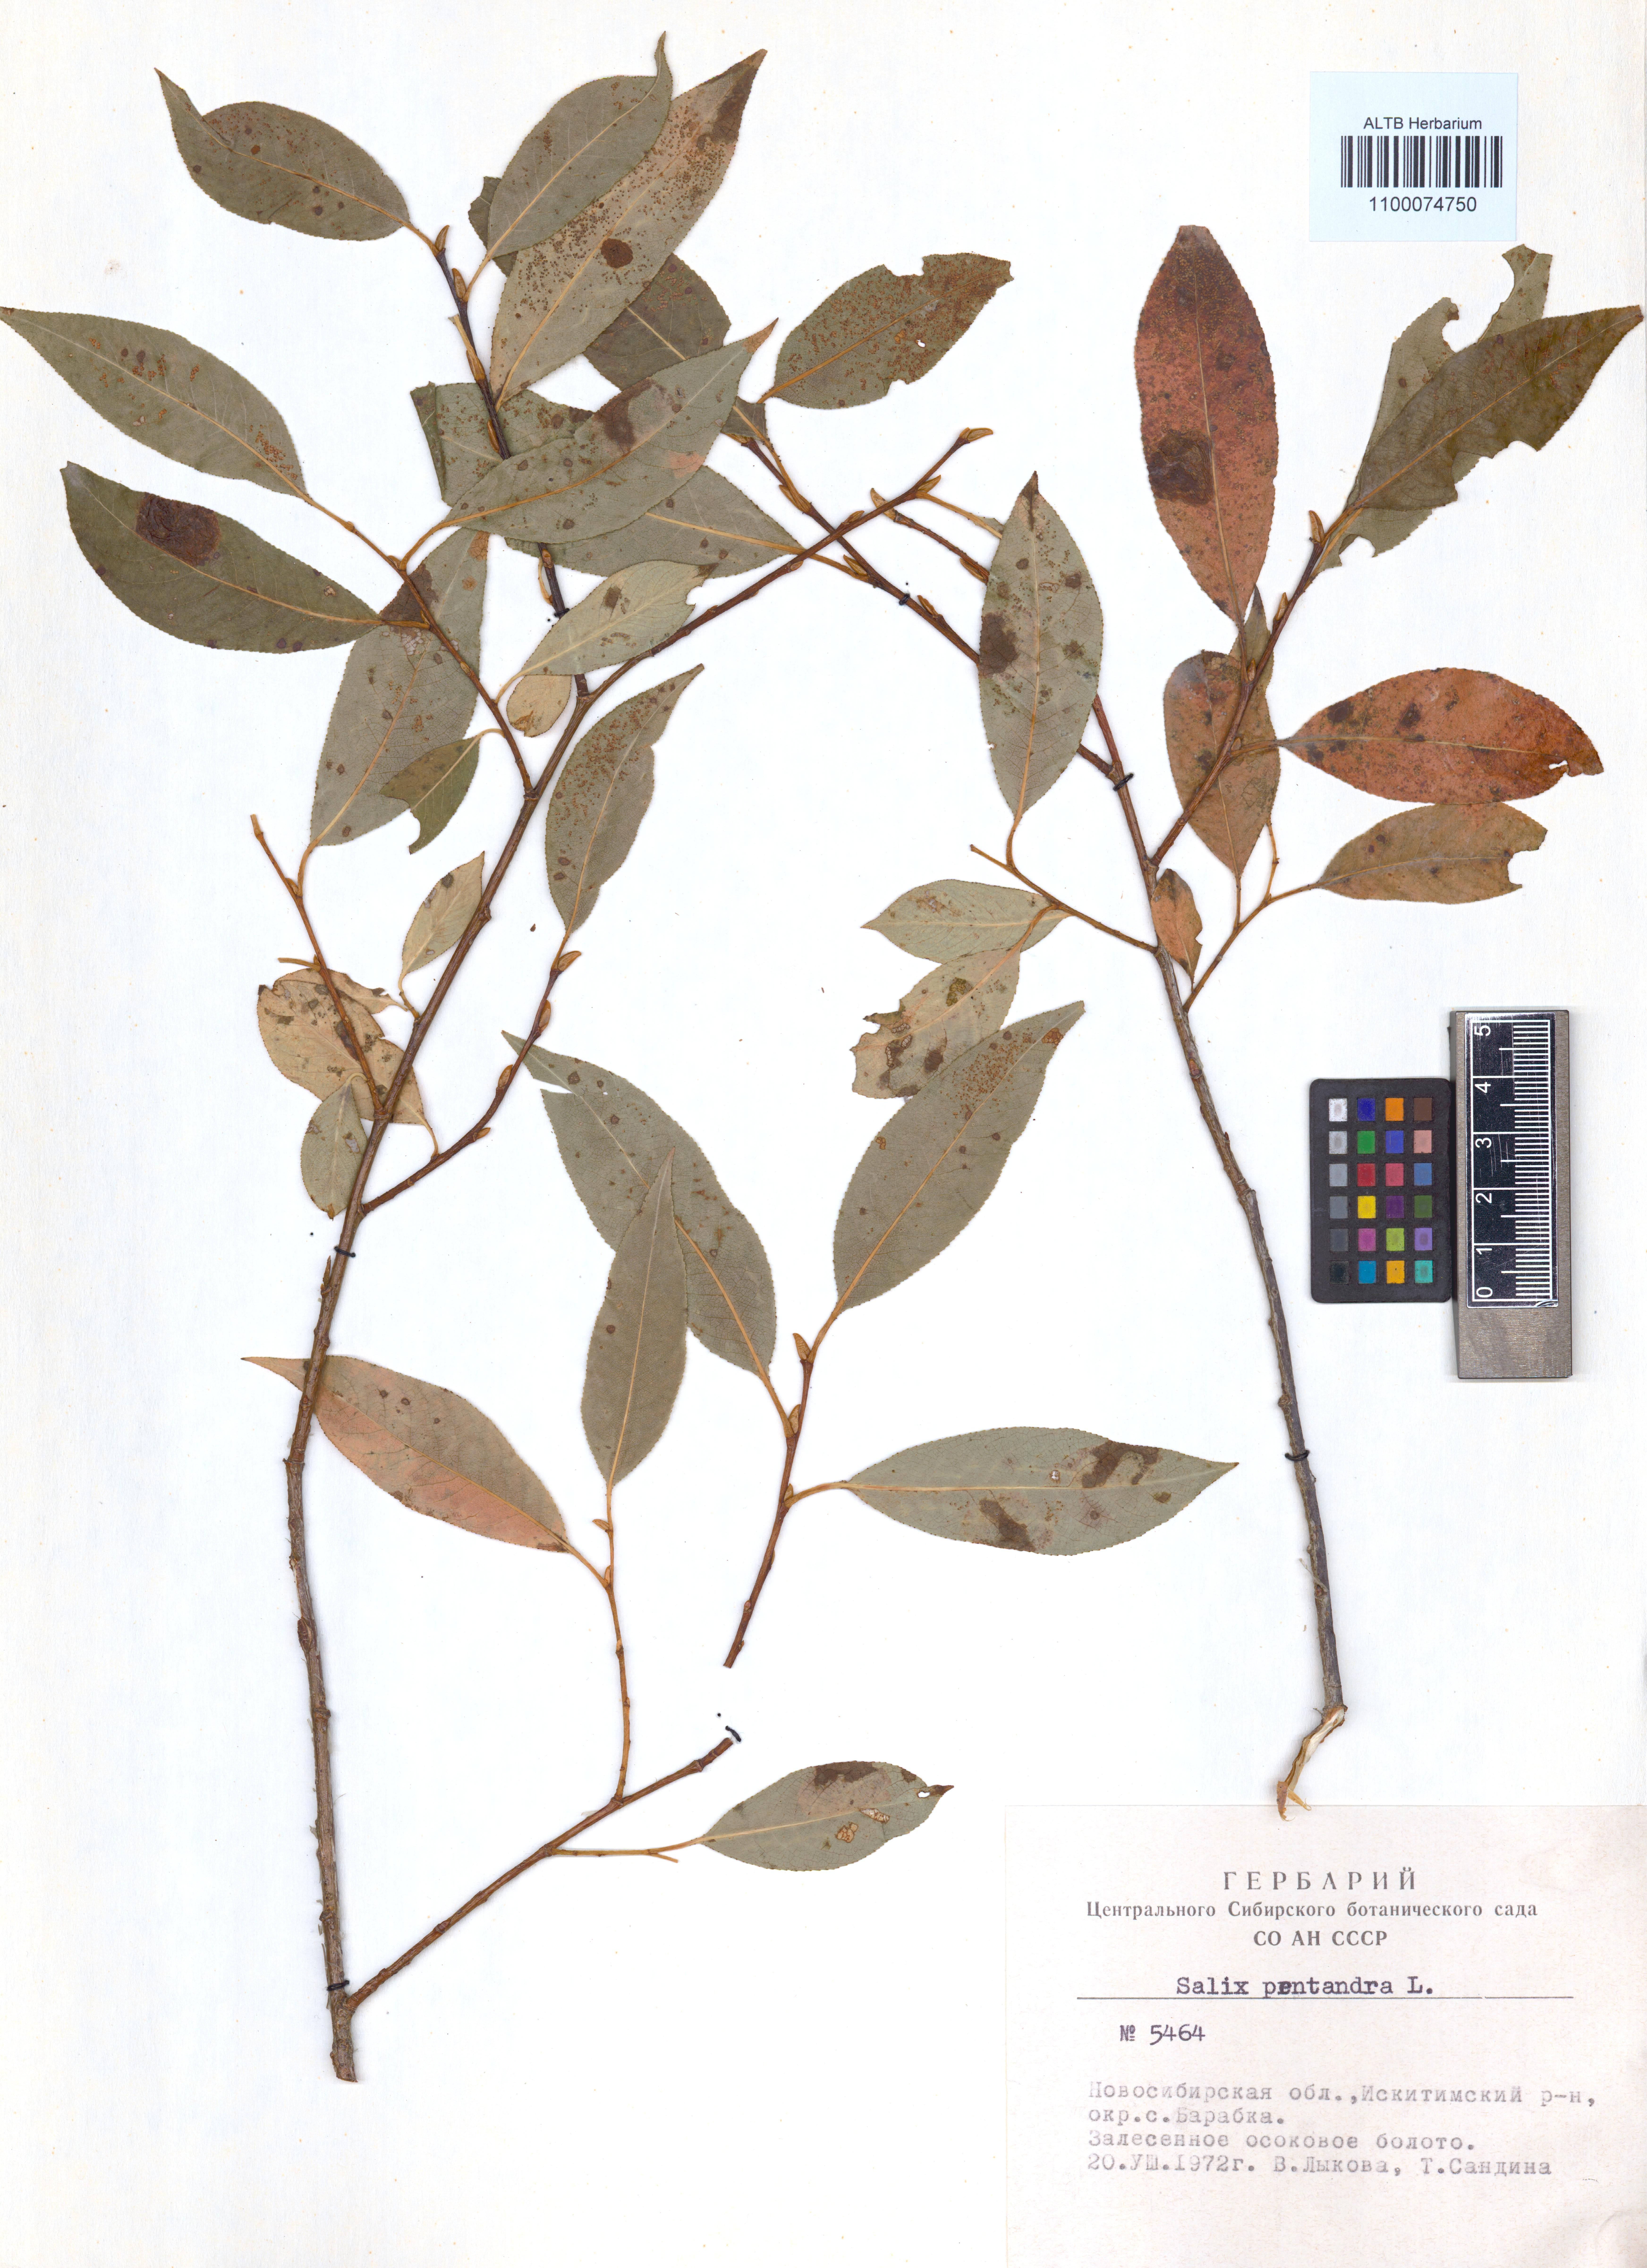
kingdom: Plantae
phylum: Tracheophyta
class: Magnoliopsida
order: Malpighiales
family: Salicaceae
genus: Salix
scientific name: Salix pentandra
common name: Bay willow
